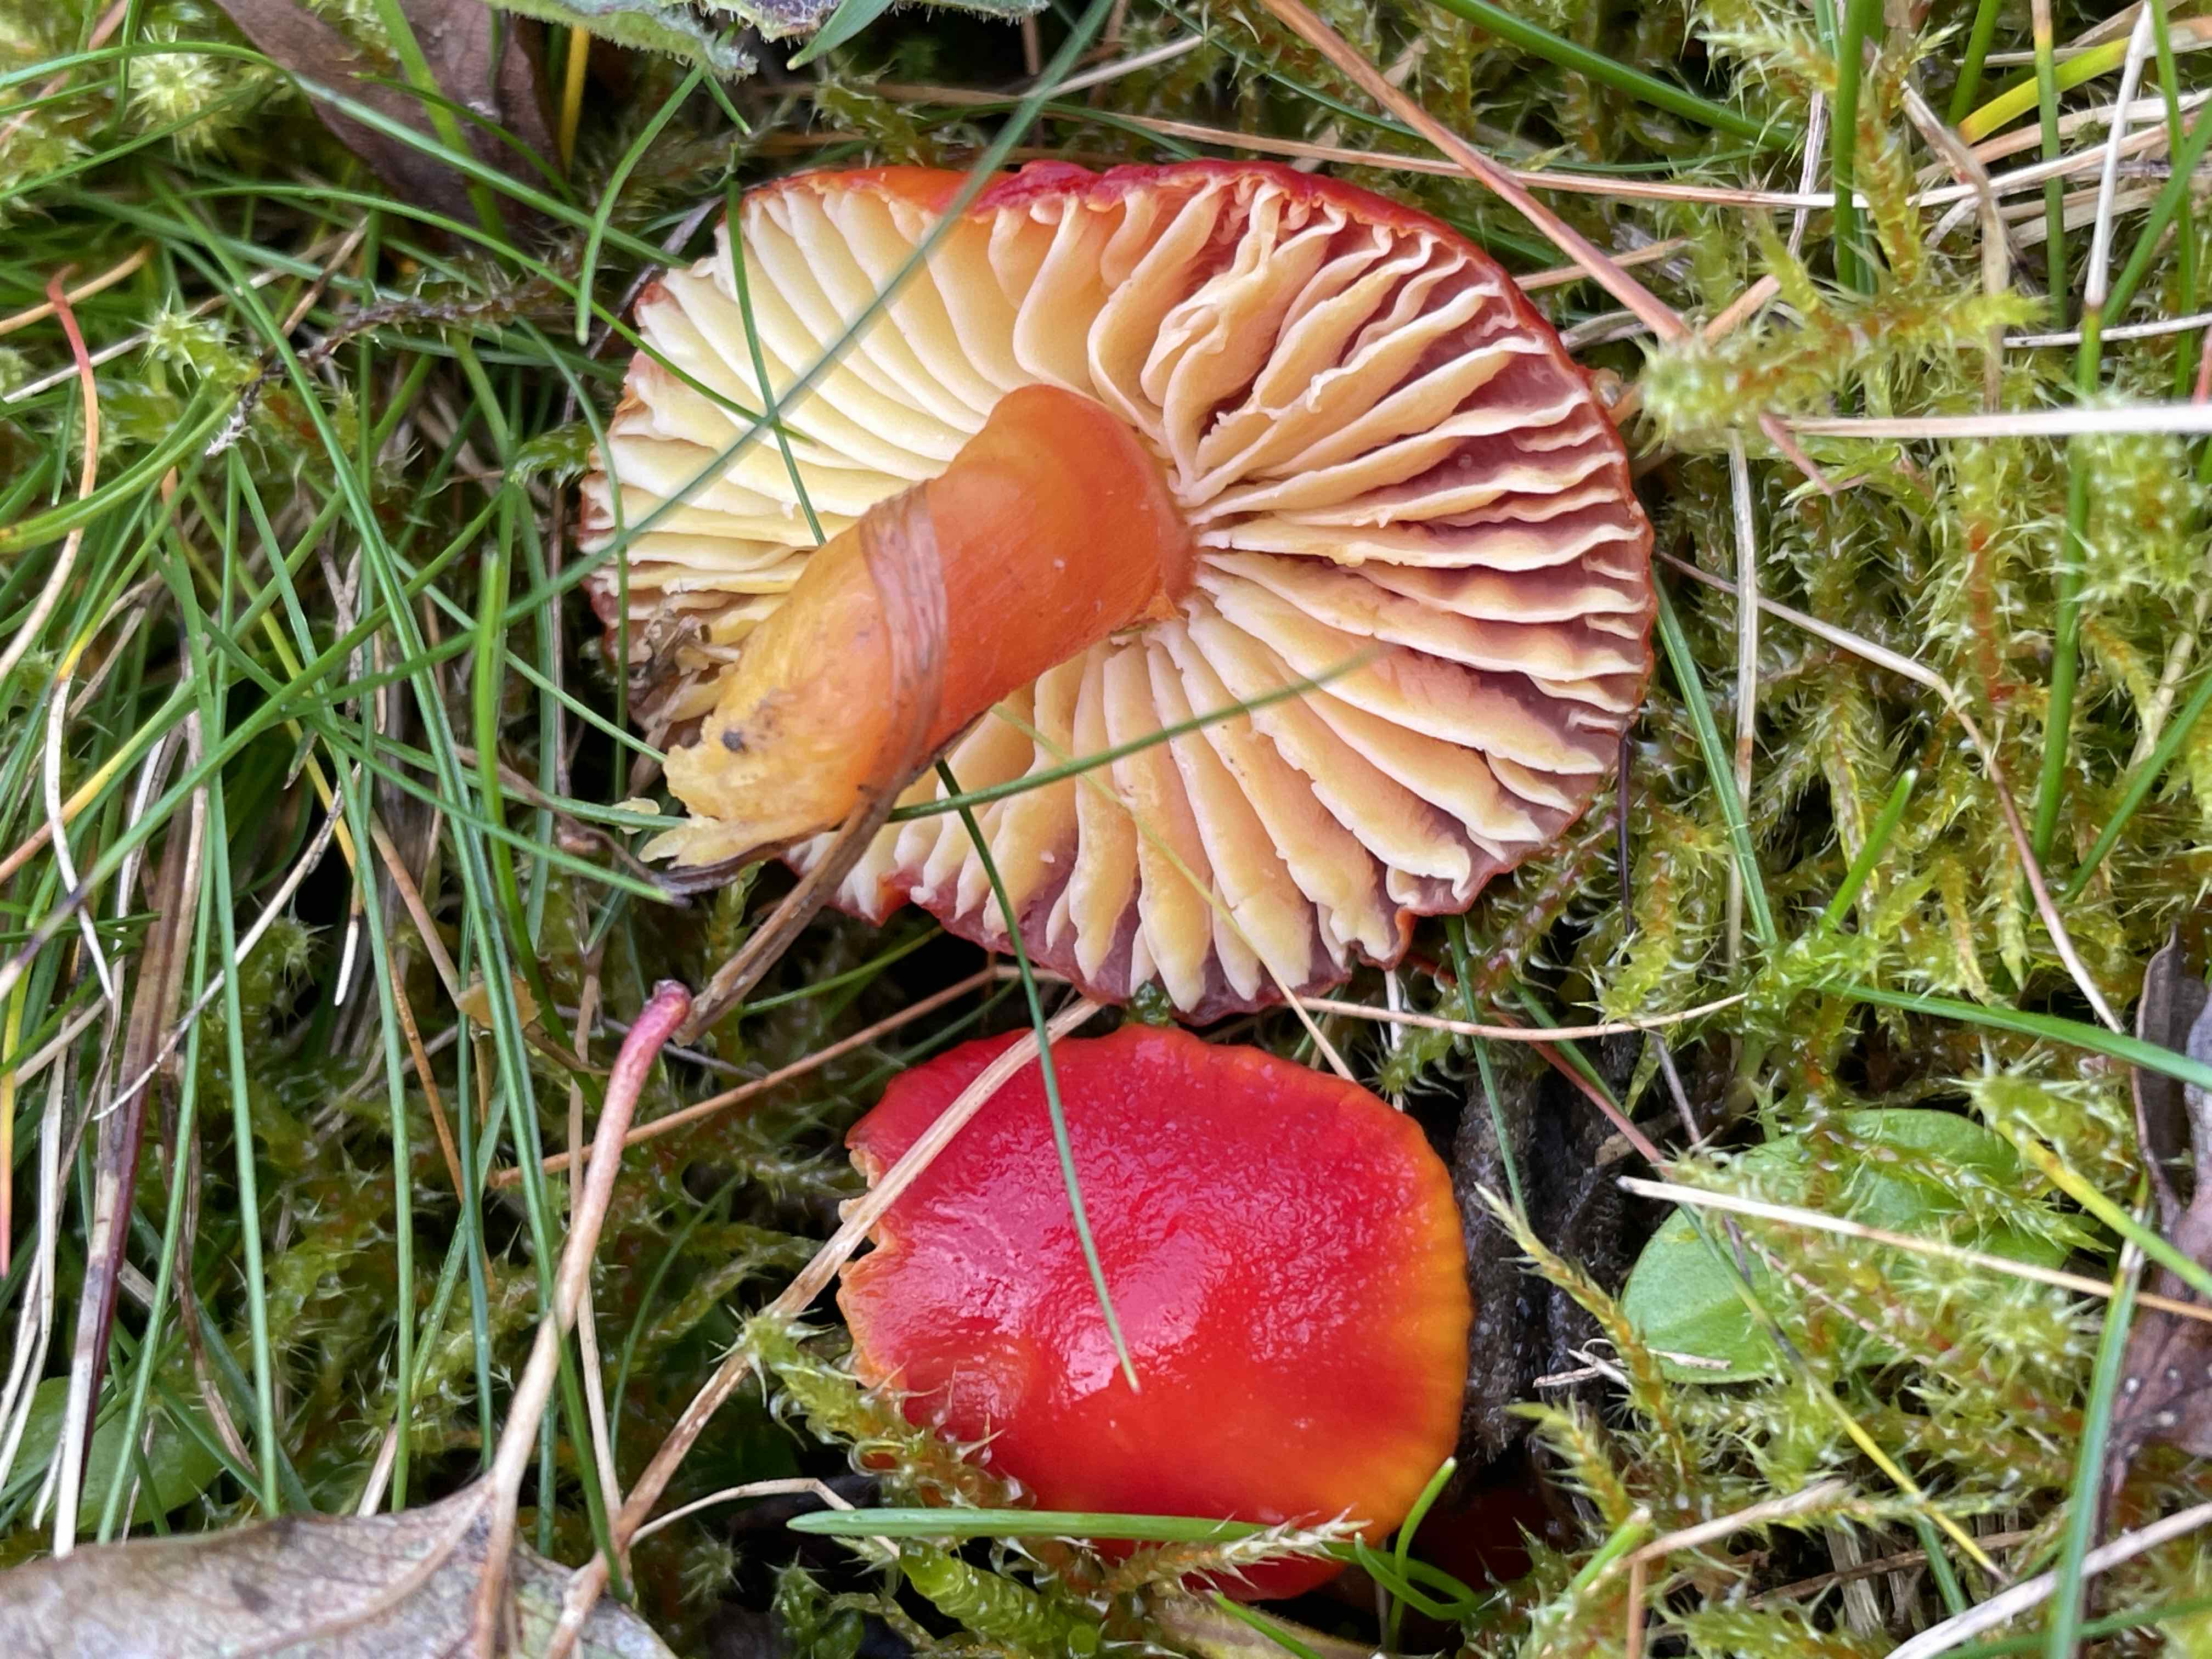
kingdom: Fungi
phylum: Basidiomycota
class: Agaricomycetes
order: Agaricales
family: Hygrophoraceae
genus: Hygrocybe
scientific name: Hygrocybe coccinea
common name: cinnober-vokshat
